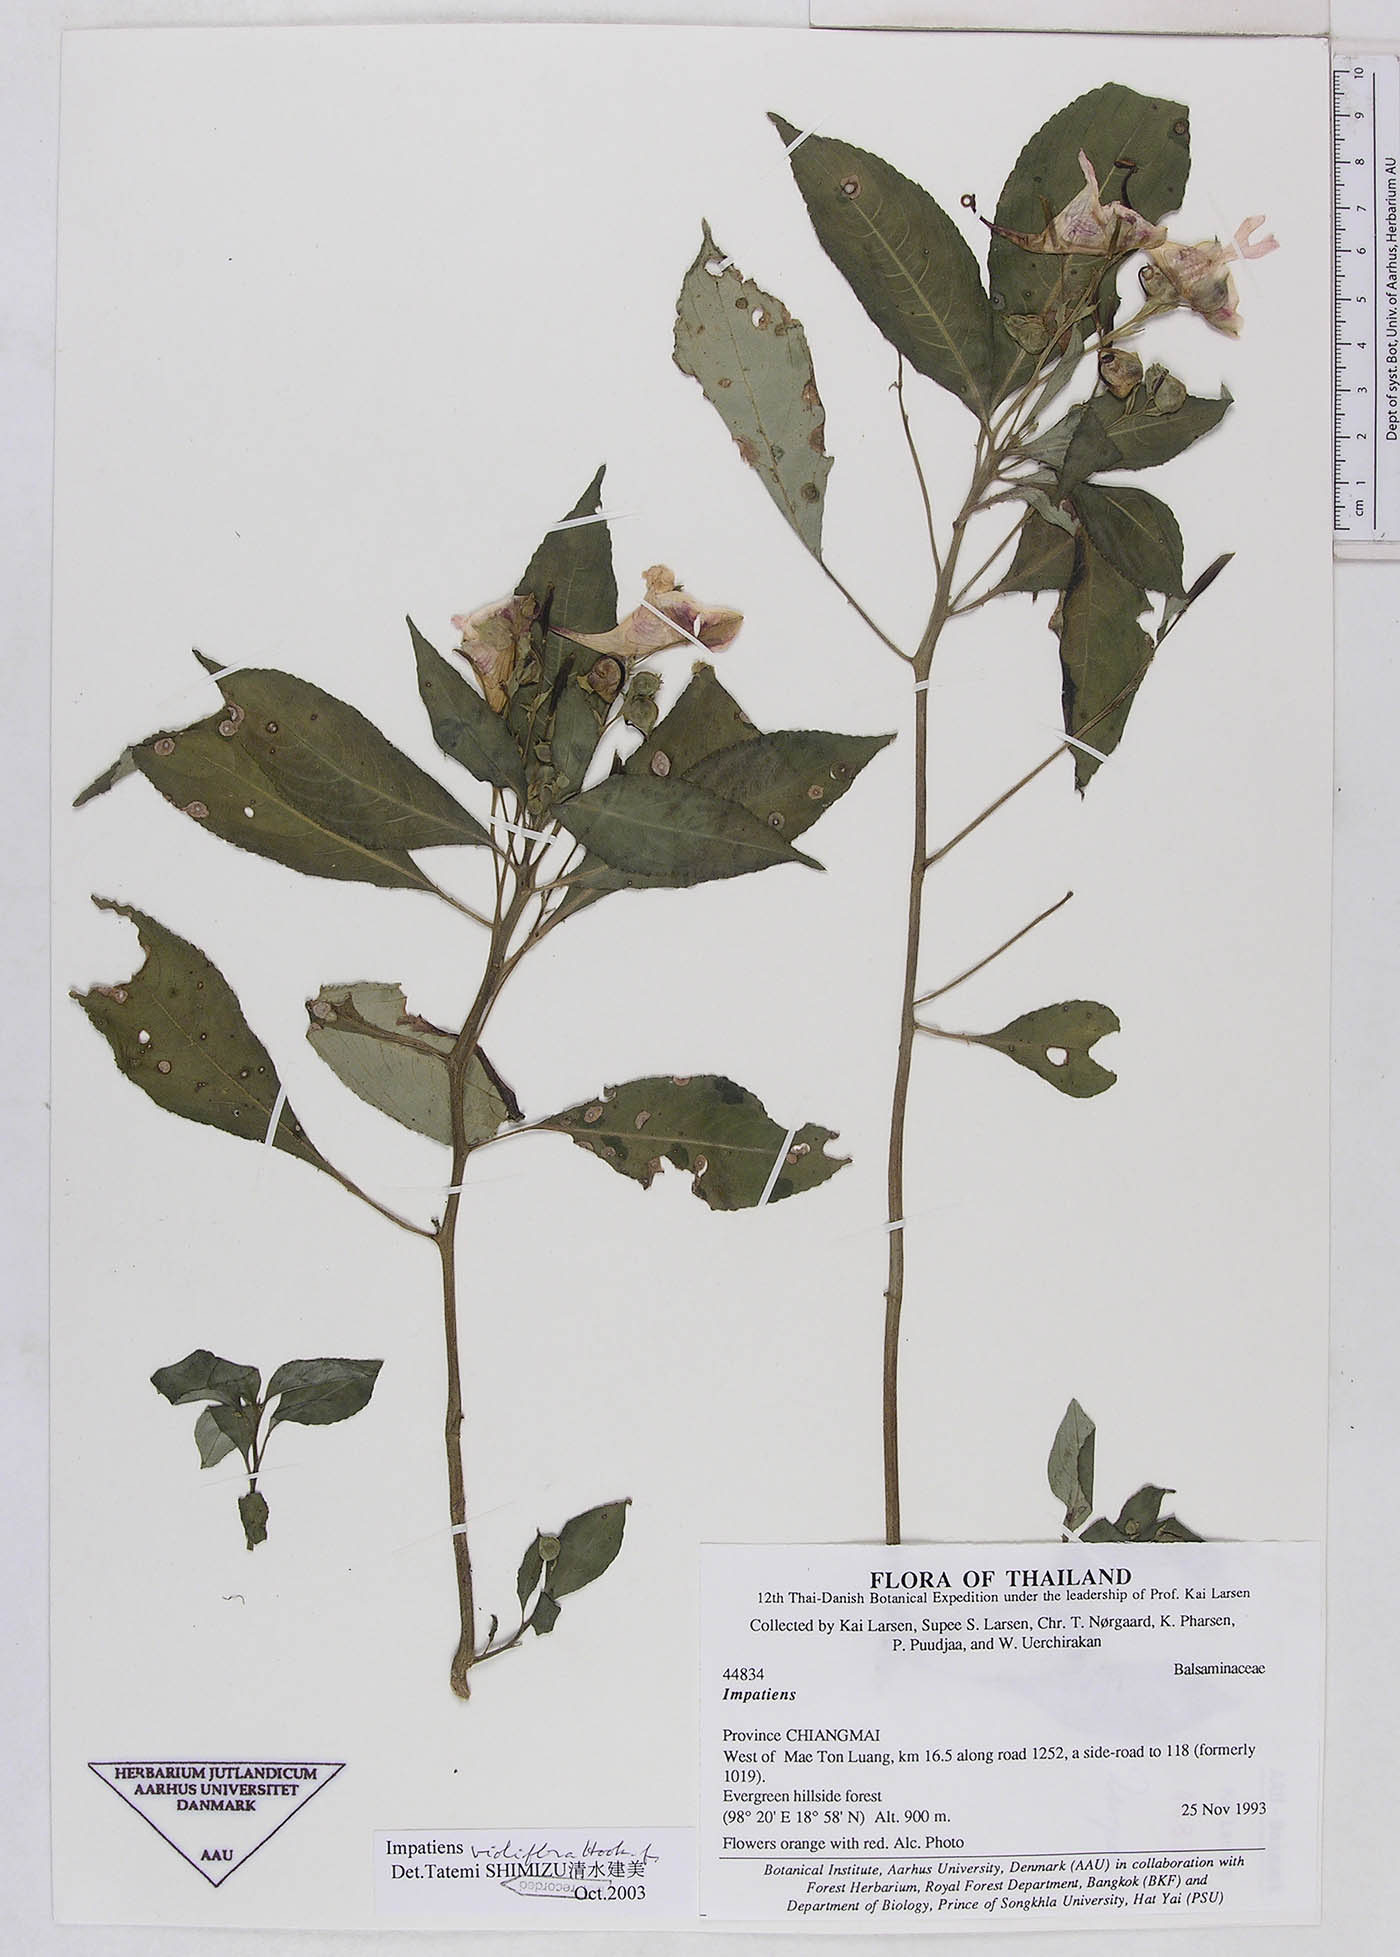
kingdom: Plantae
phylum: Tracheophyta
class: Magnoliopsida
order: Ericales
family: Balsaminaceae
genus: Impatiens
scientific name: Impatiens pulchra
